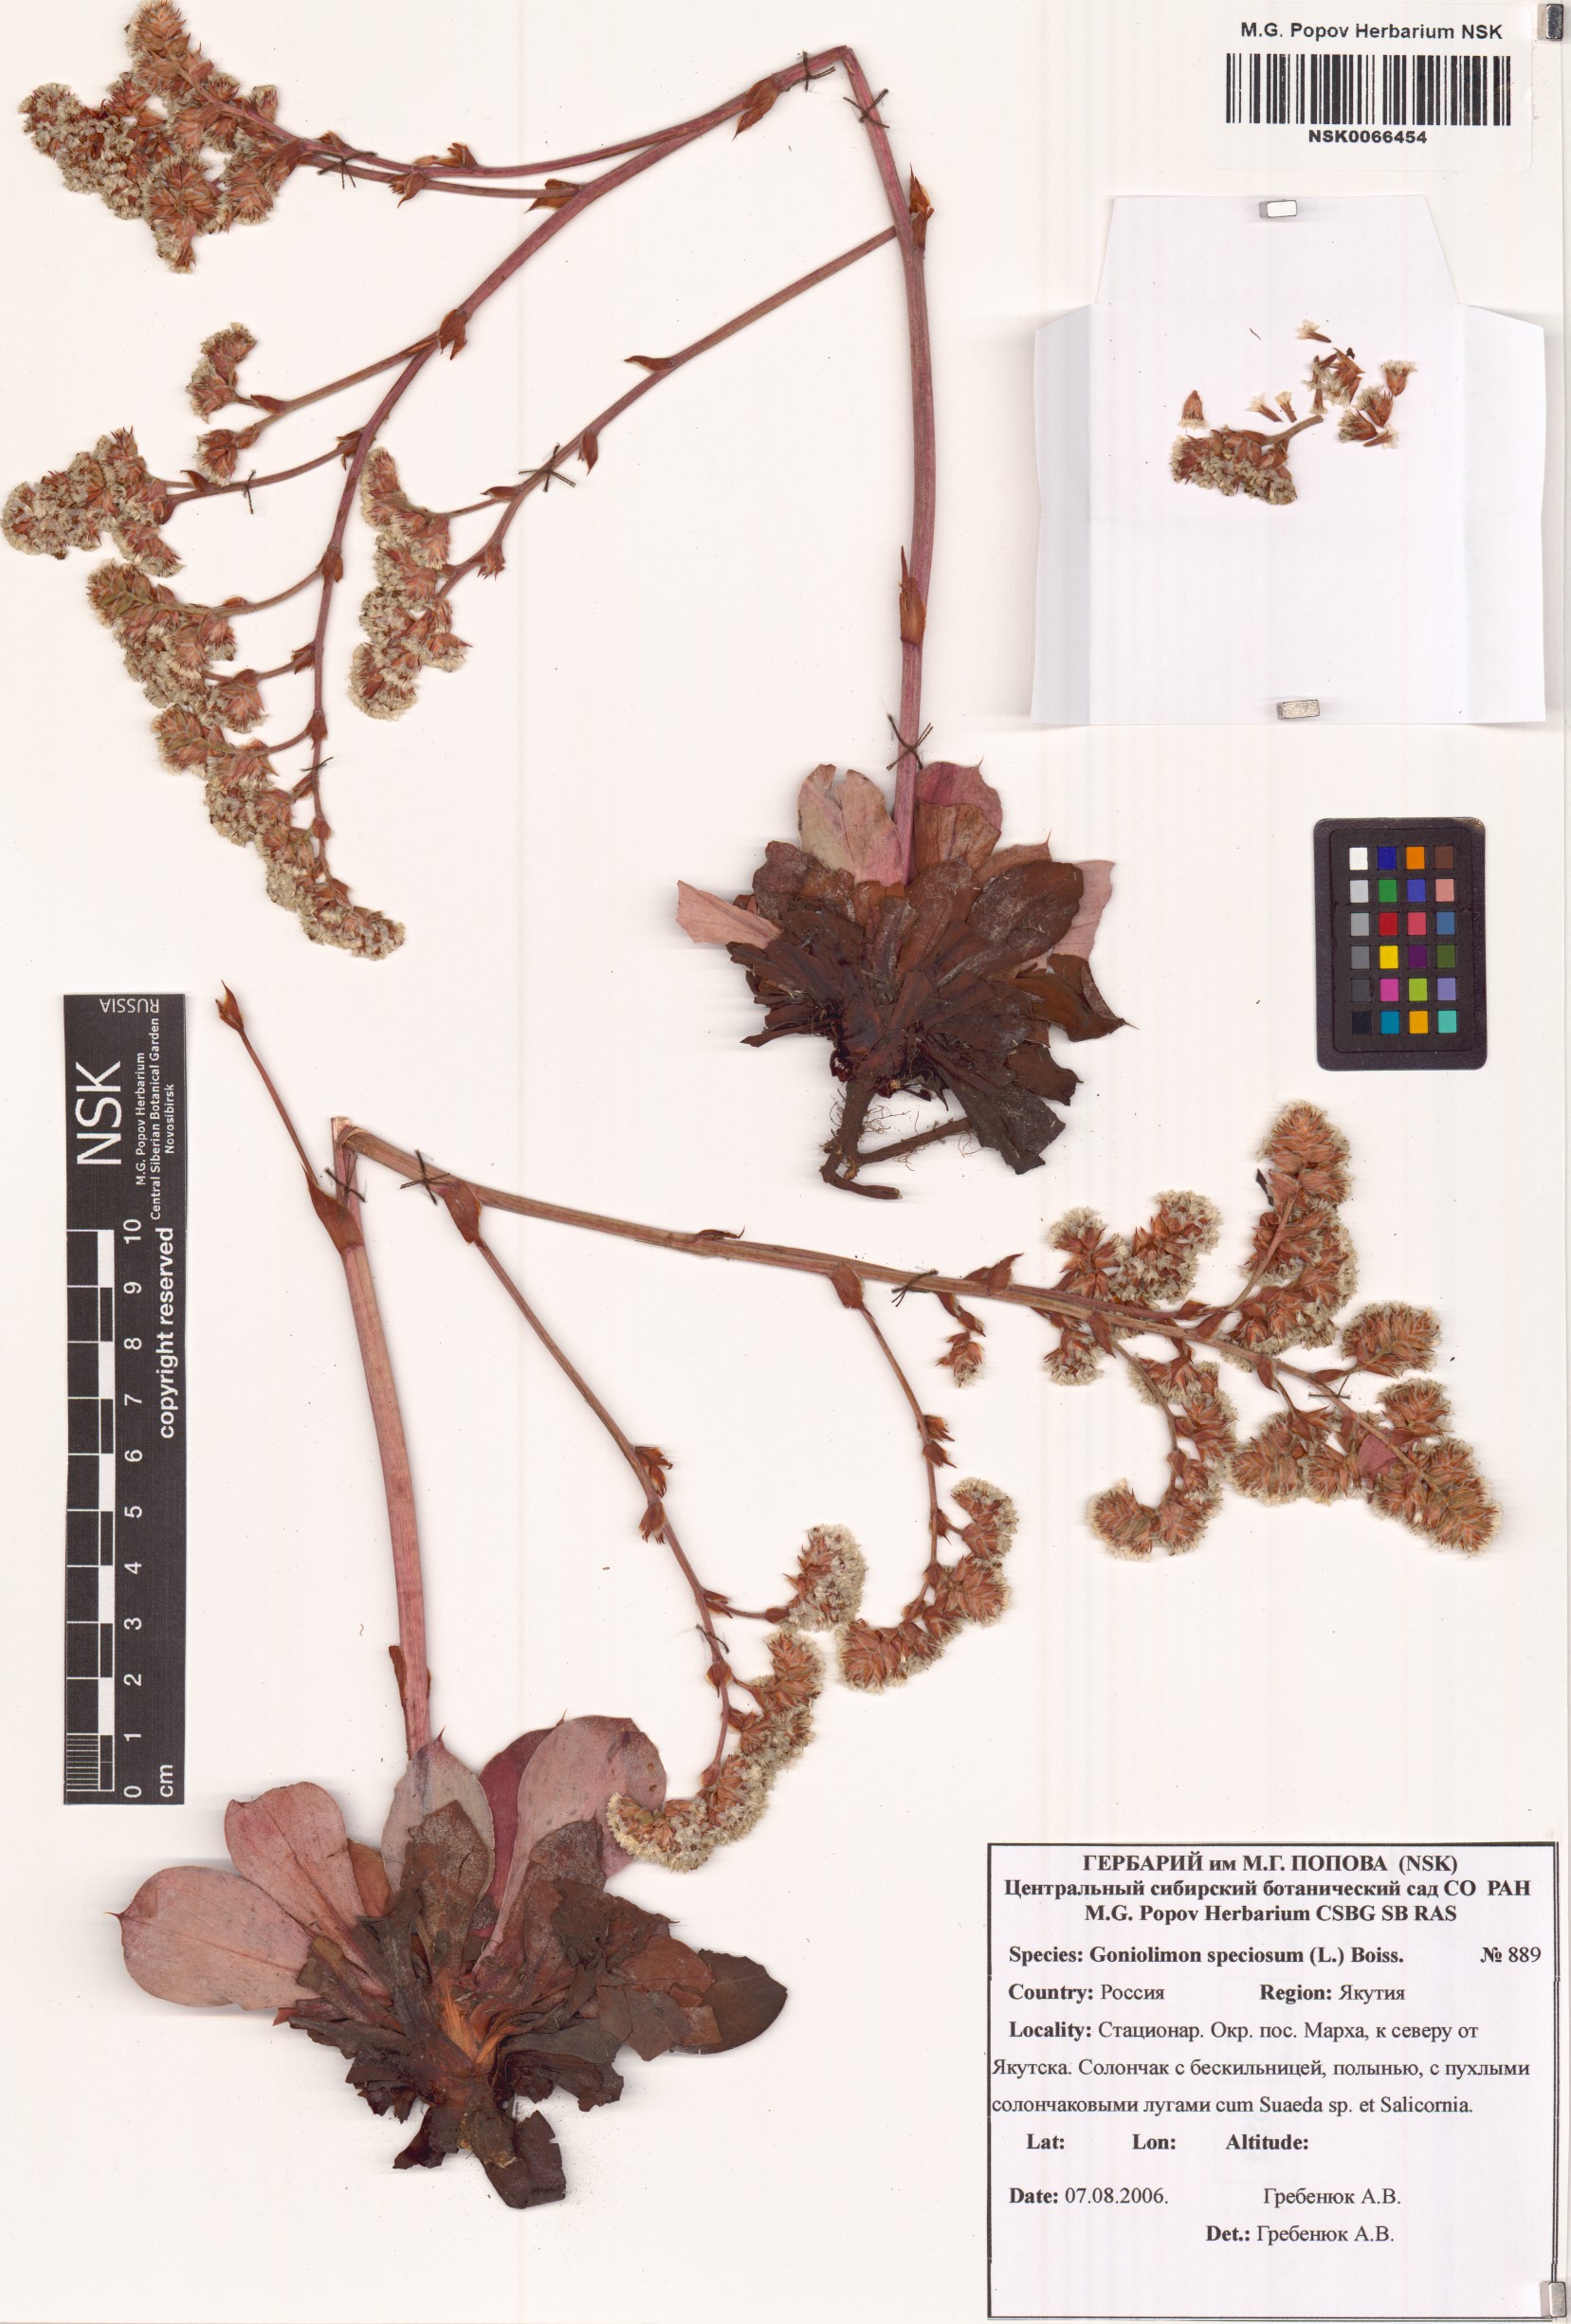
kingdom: Plantae
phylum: Tracheophyta
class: Magnoliopsida
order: Caryophyllales
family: Plumbaginaceae
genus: Goniolimon
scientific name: Goniolimon speciosum
